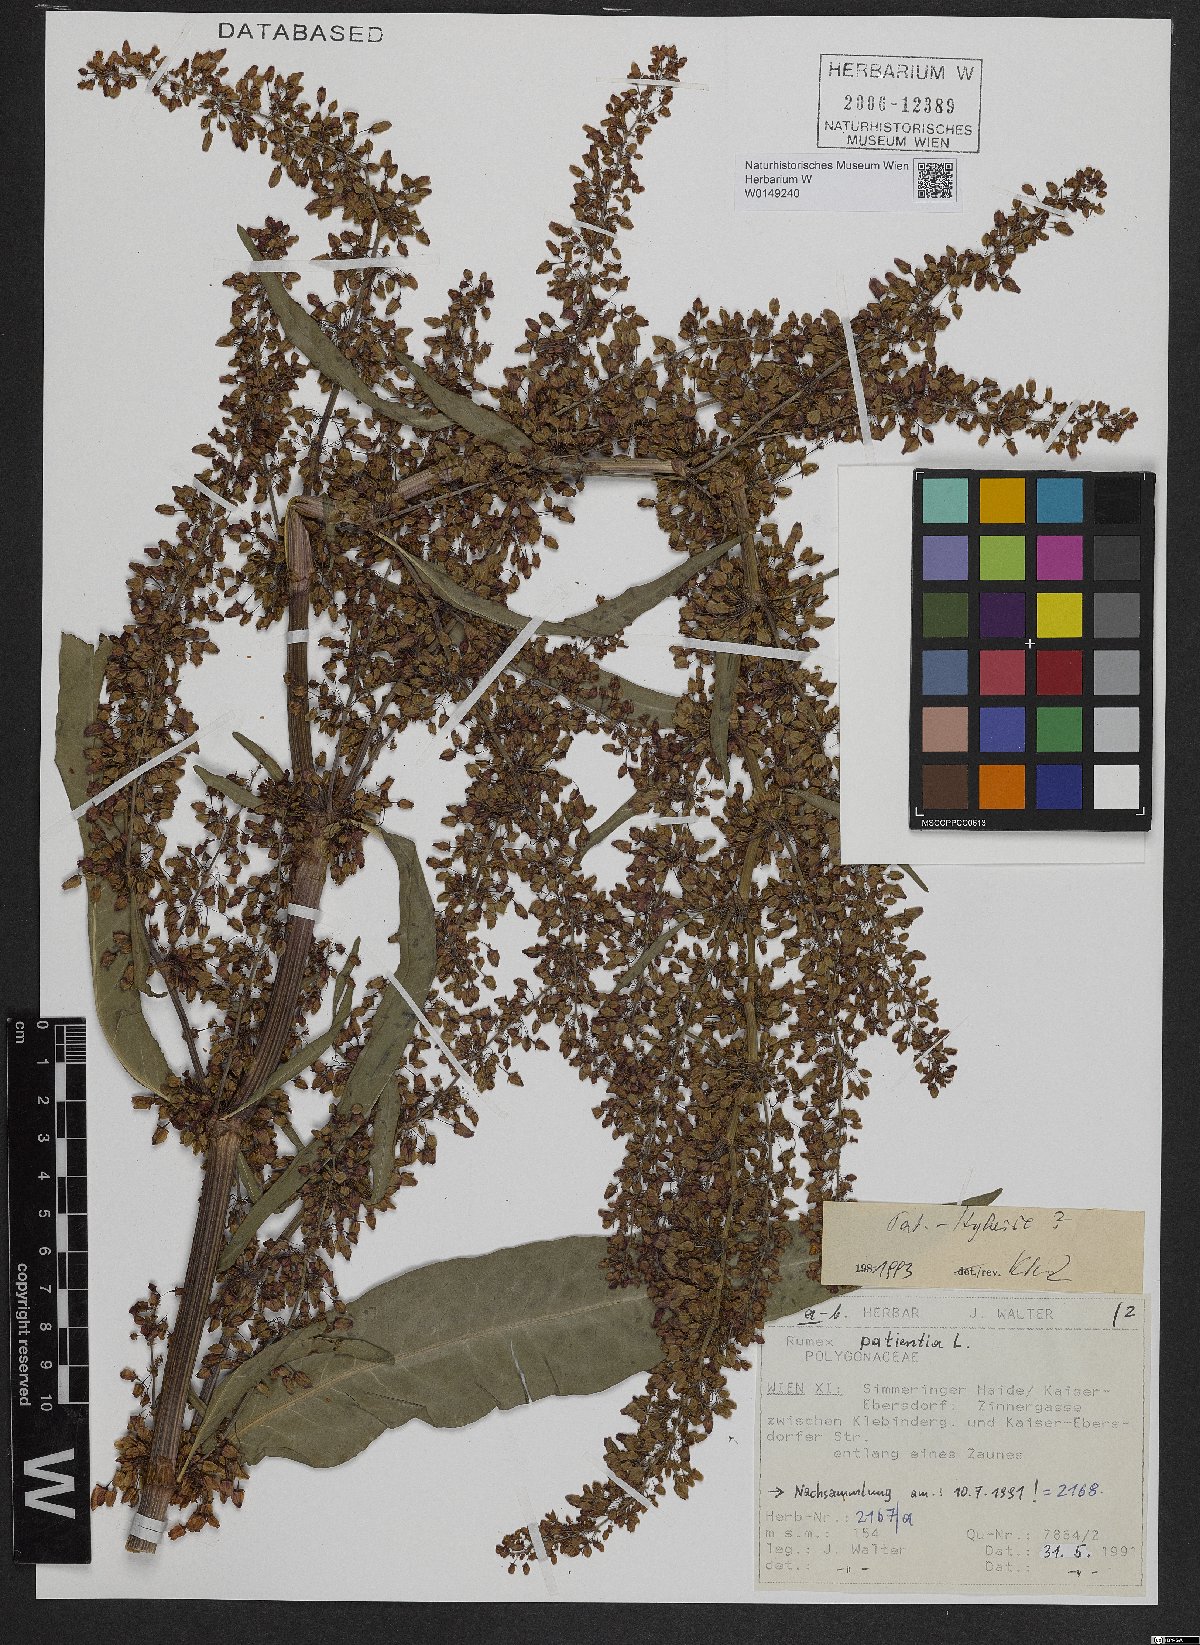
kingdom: Plantae
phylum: Tracheophyta
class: Magnoliopsida
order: Caryophyllales
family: Polygonaceae
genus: Rumex
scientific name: Rumex patientia
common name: Patience dock
